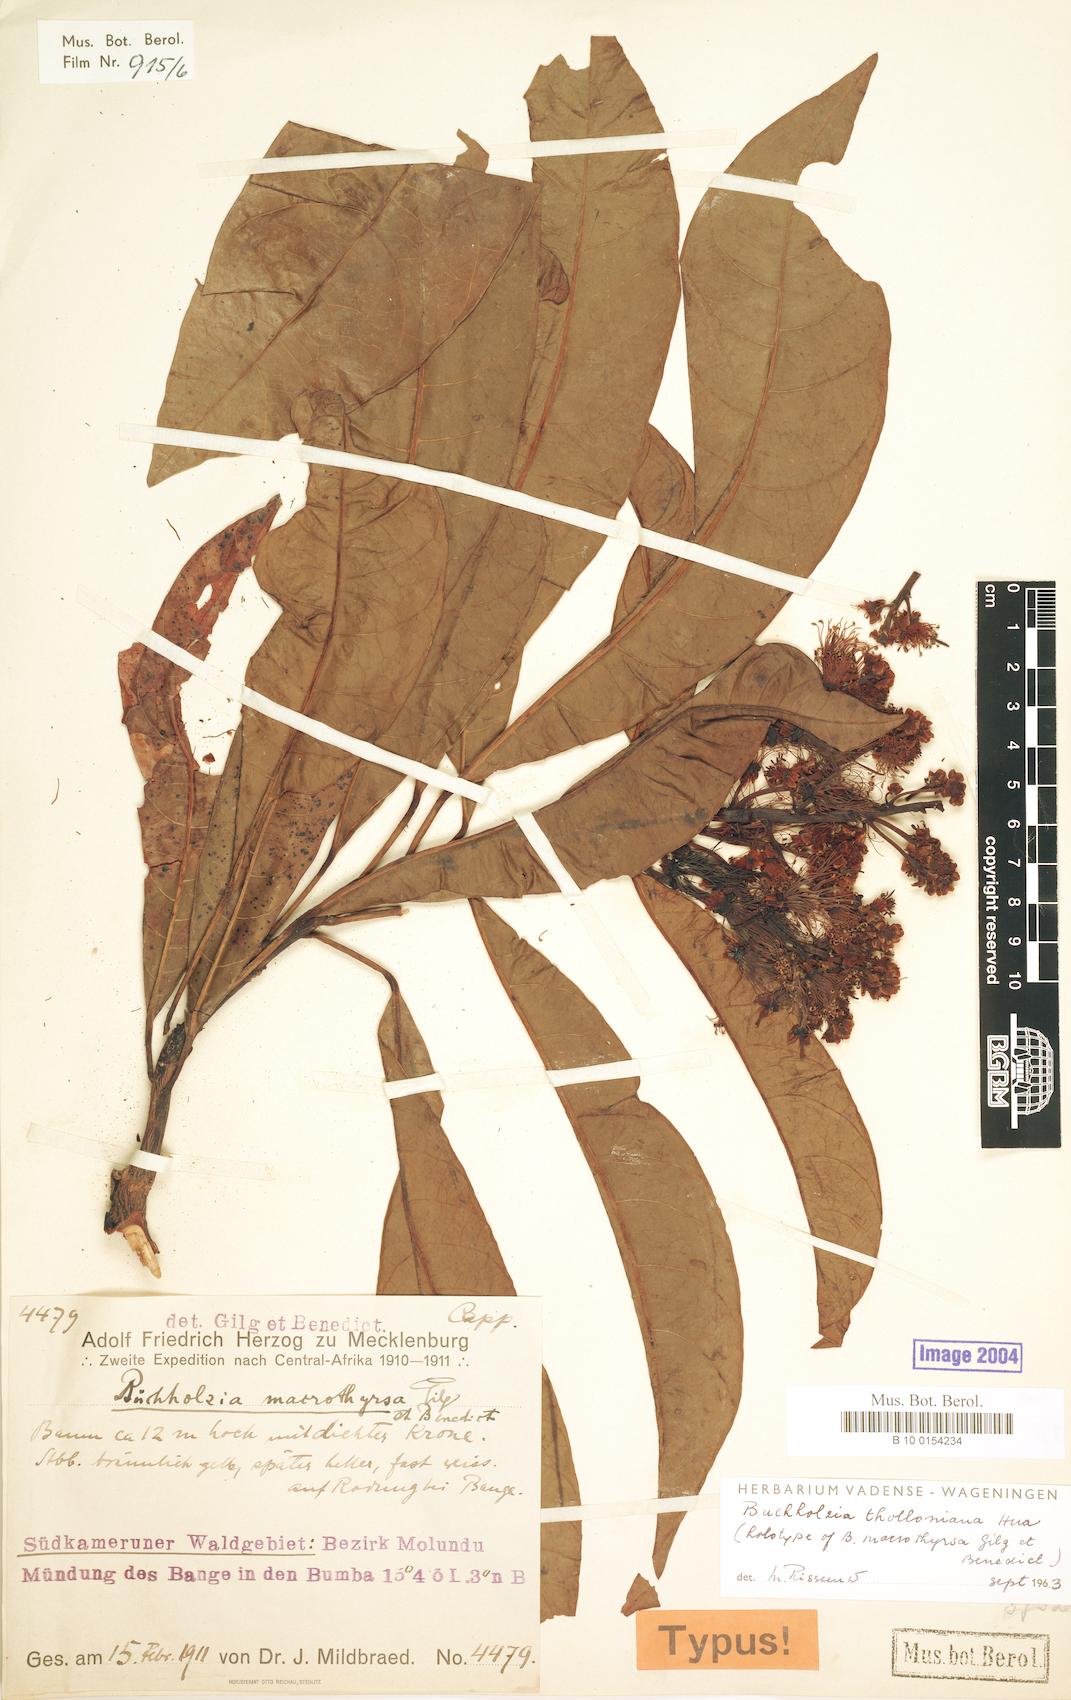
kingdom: Plantae
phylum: Tracheophyta
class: Magnoliopsida
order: Brassicales
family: Capparaceae
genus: Buchholzia
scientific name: Buchholzia tholloniana
